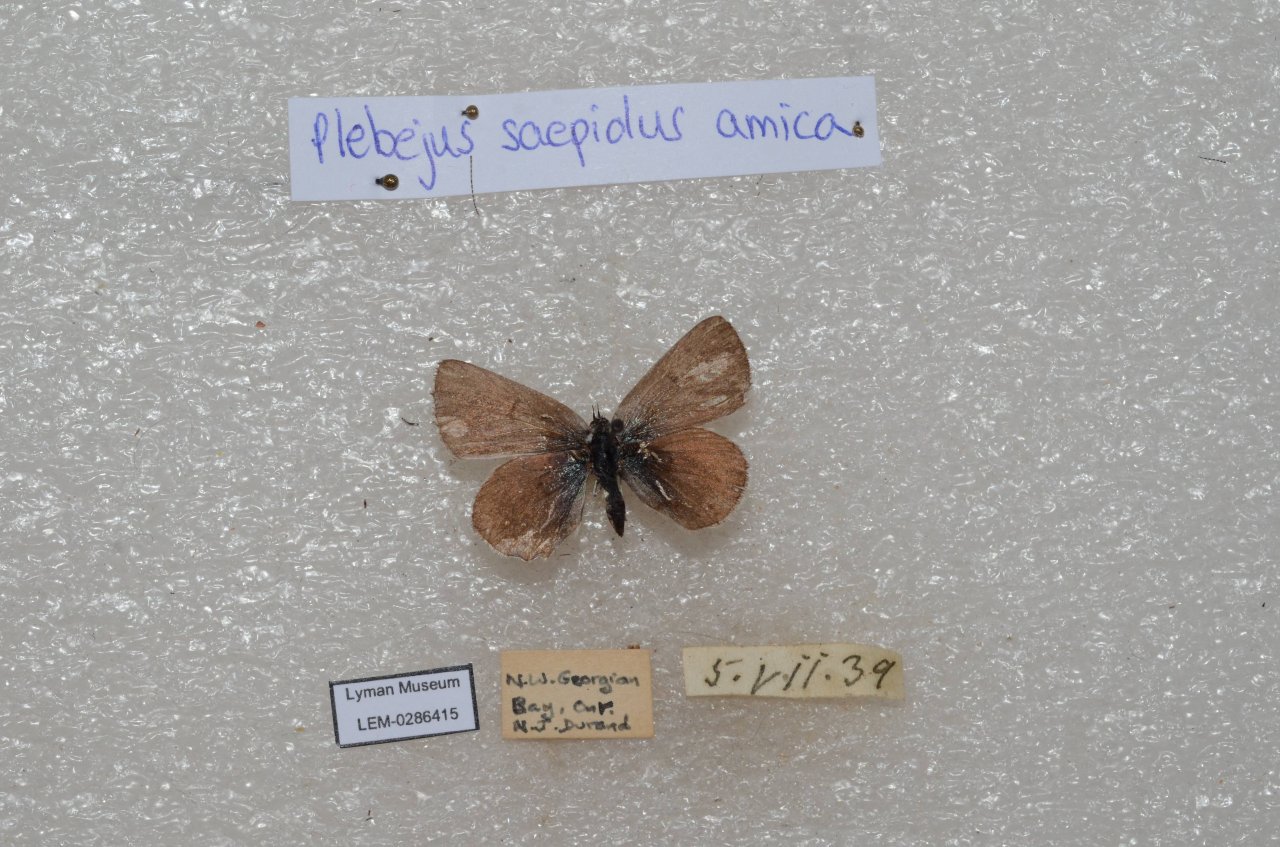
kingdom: Animalia
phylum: Arthropoda
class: Insecta
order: Lepidoptera
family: Lycaenidae
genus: Plebejus
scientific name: Plebejus saepiolus
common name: Greenish Blue
